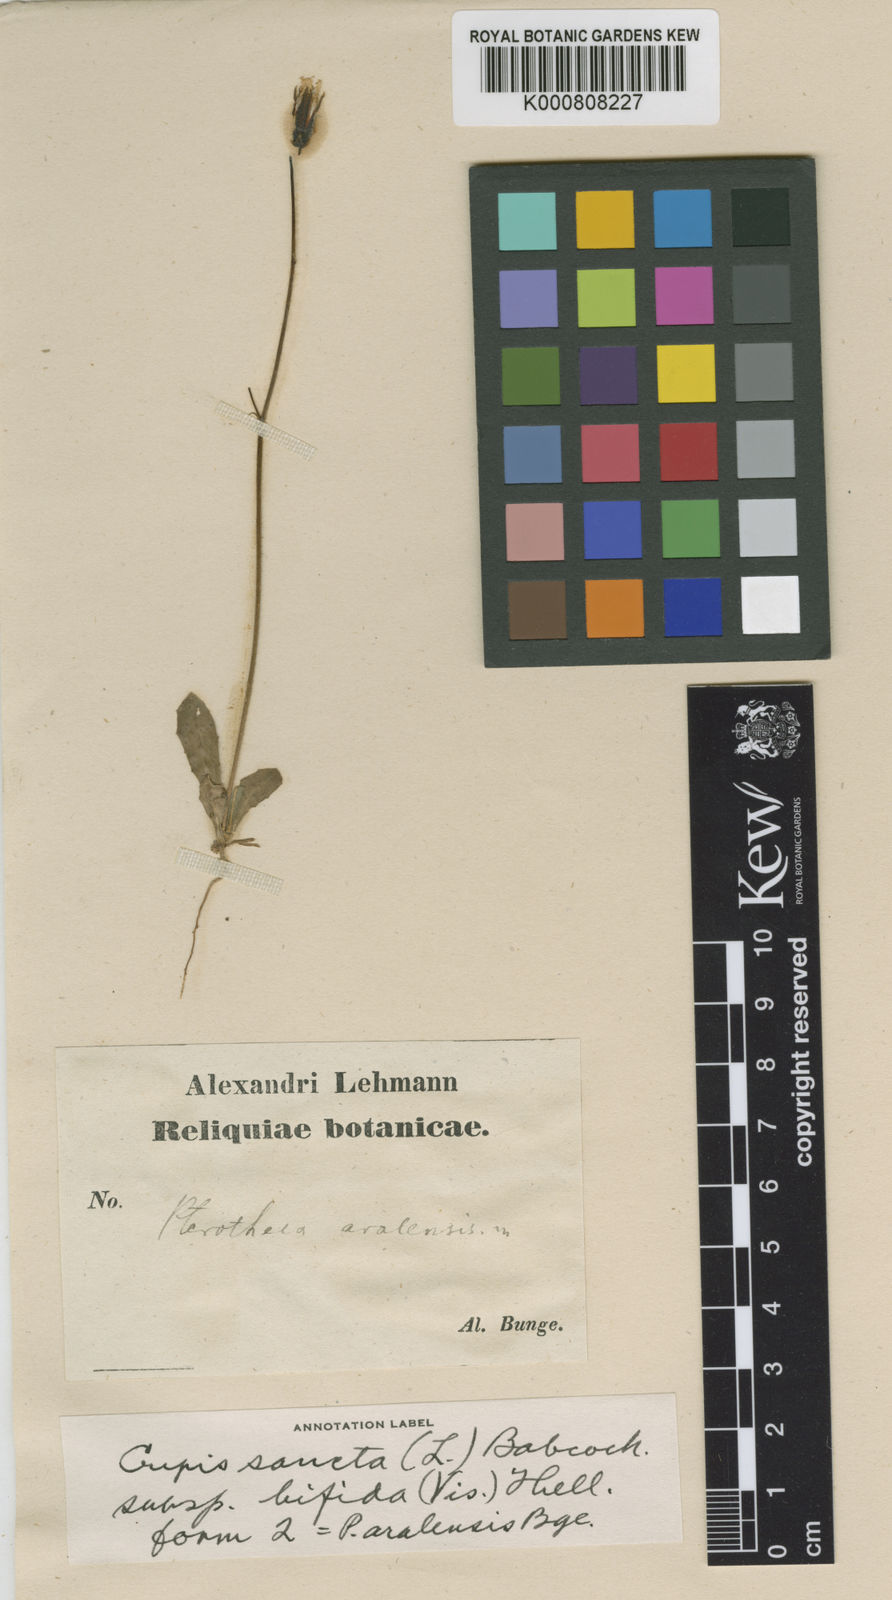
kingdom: Plantae
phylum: Tracheophyta
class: Magnoliopsida
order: Asterales
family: Asteraceae
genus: Crepis
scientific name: Crepis sancta
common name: Hawk's-beard
